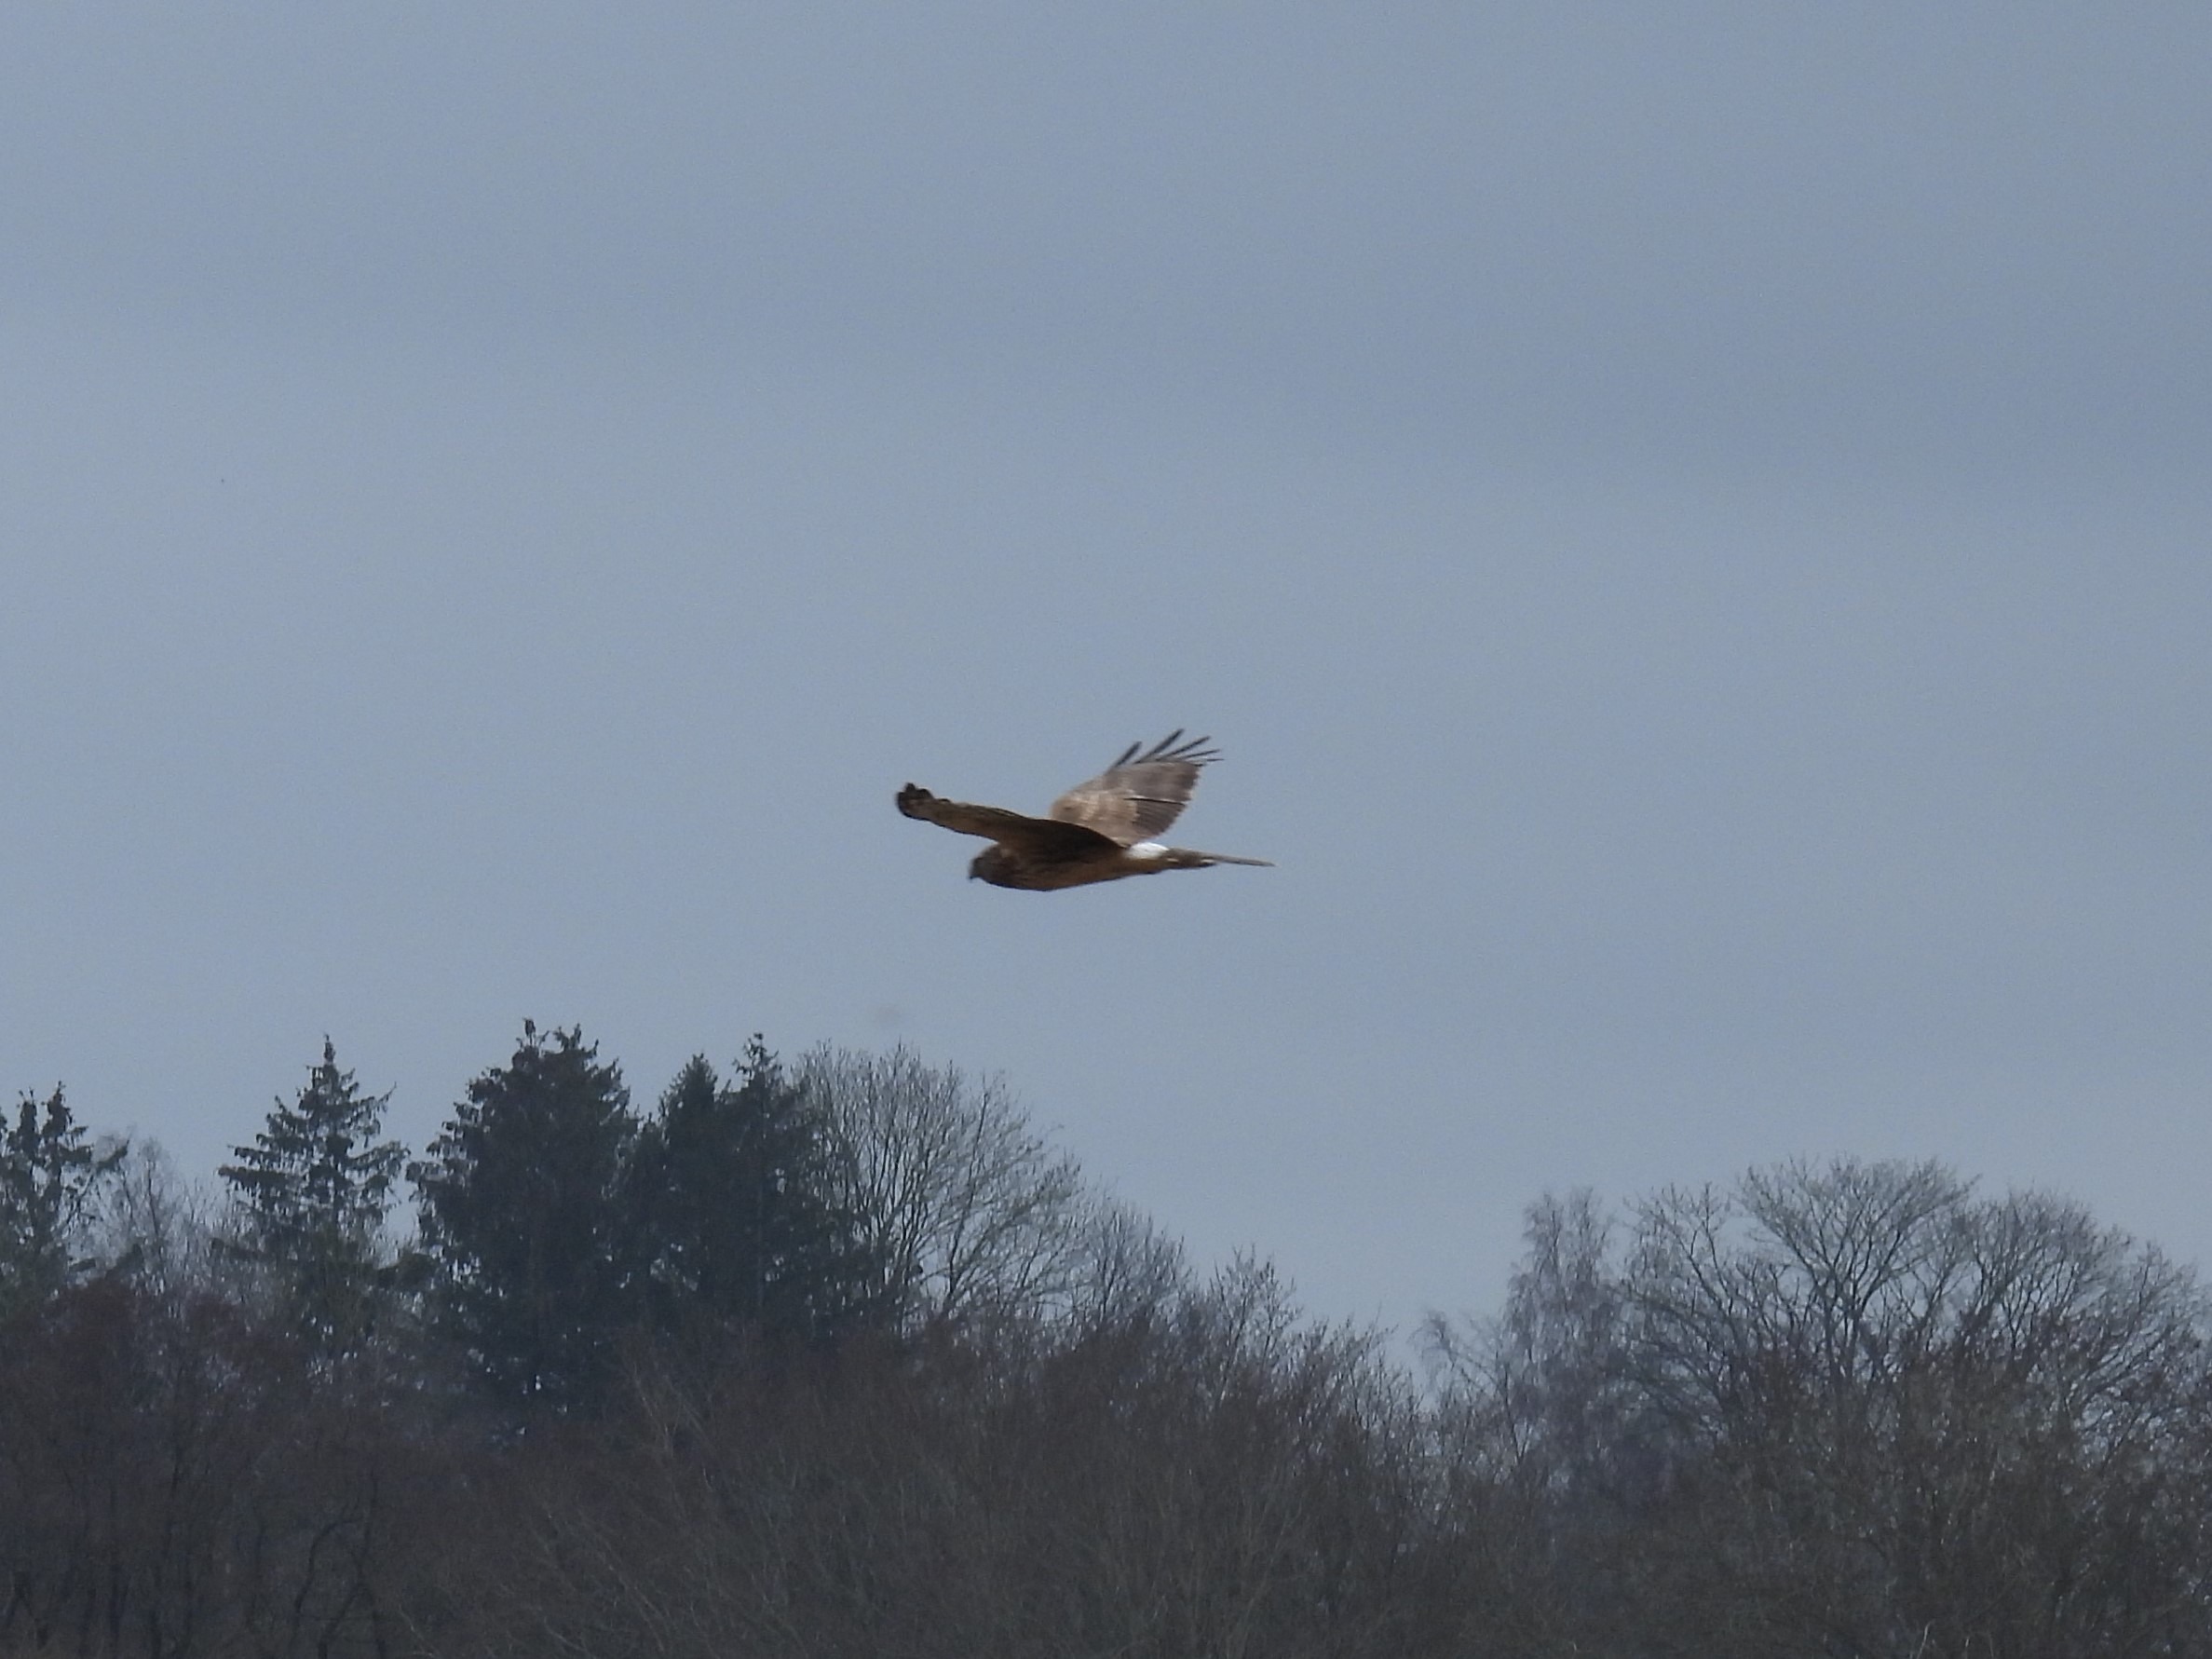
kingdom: Animalia
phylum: Chordata
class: Aves
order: Accipitriformes
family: Accipitridae
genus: Circus
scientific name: Circus cyaneus
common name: Blå kærhøg
